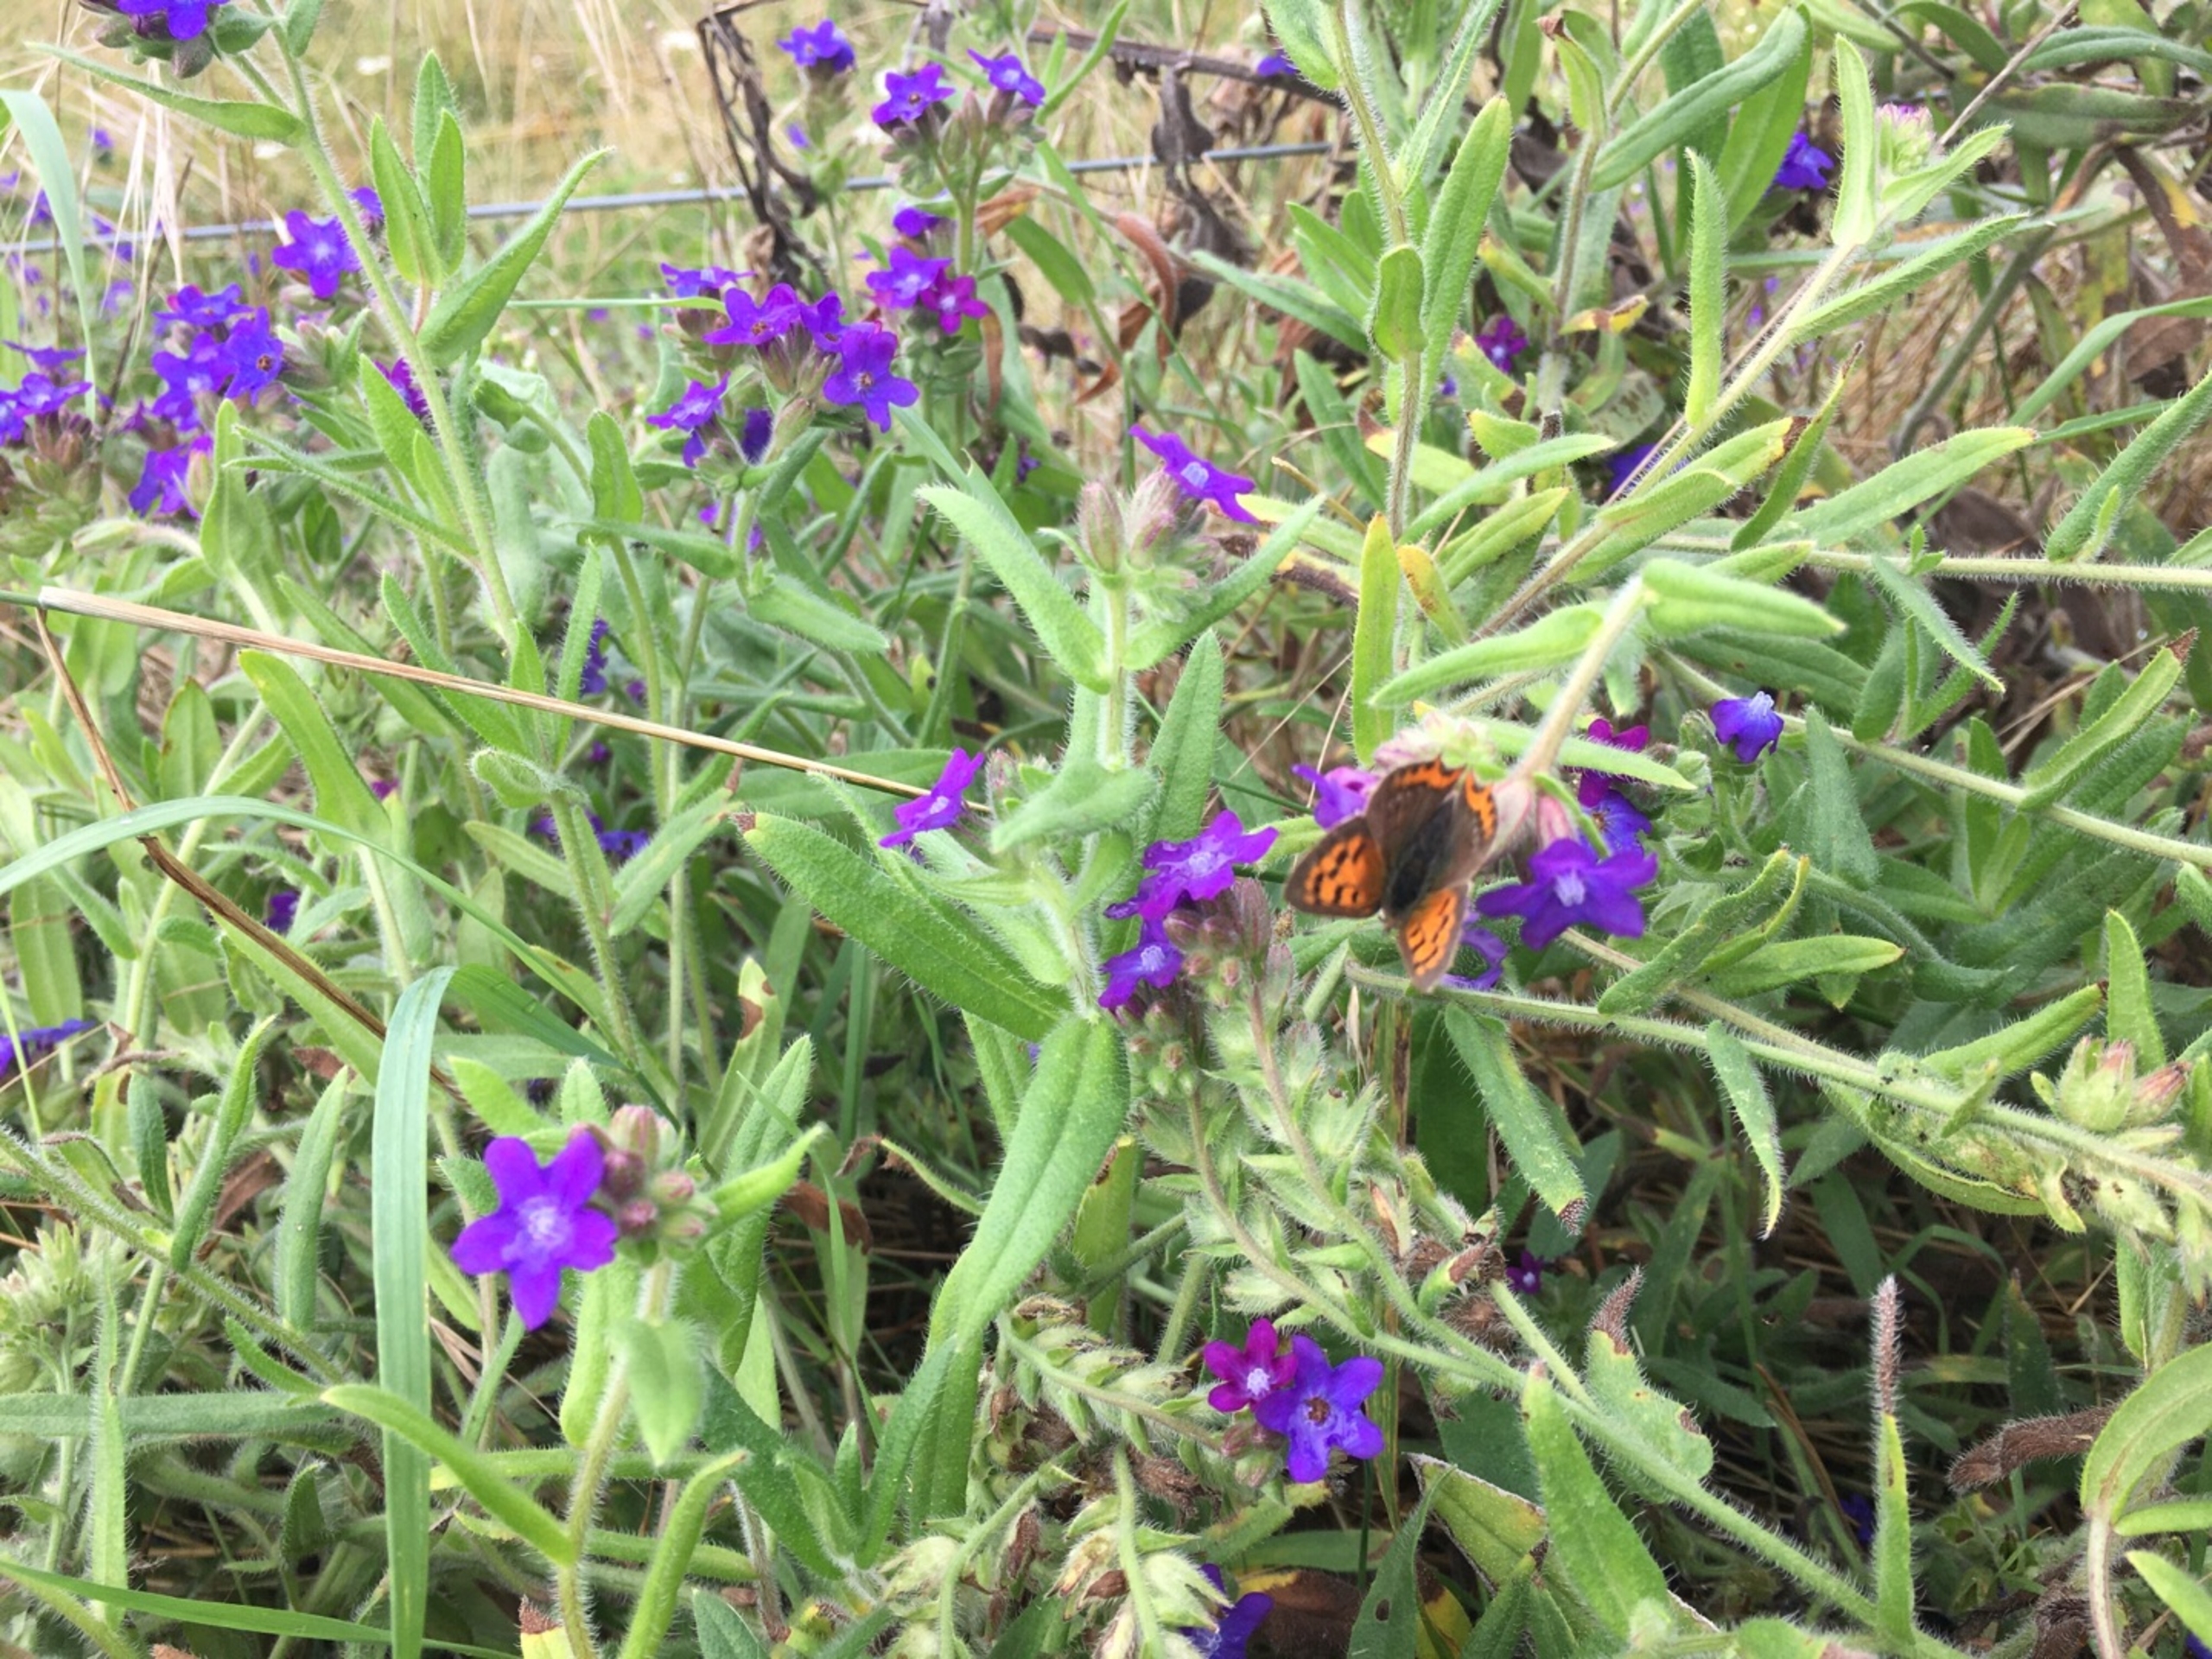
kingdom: Animalia
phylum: Arthropoda
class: Insecta
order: Lepidoptera
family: Lycaenidae
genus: Lycaena
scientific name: Lycaena phlaeas
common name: Lille ildfugl
